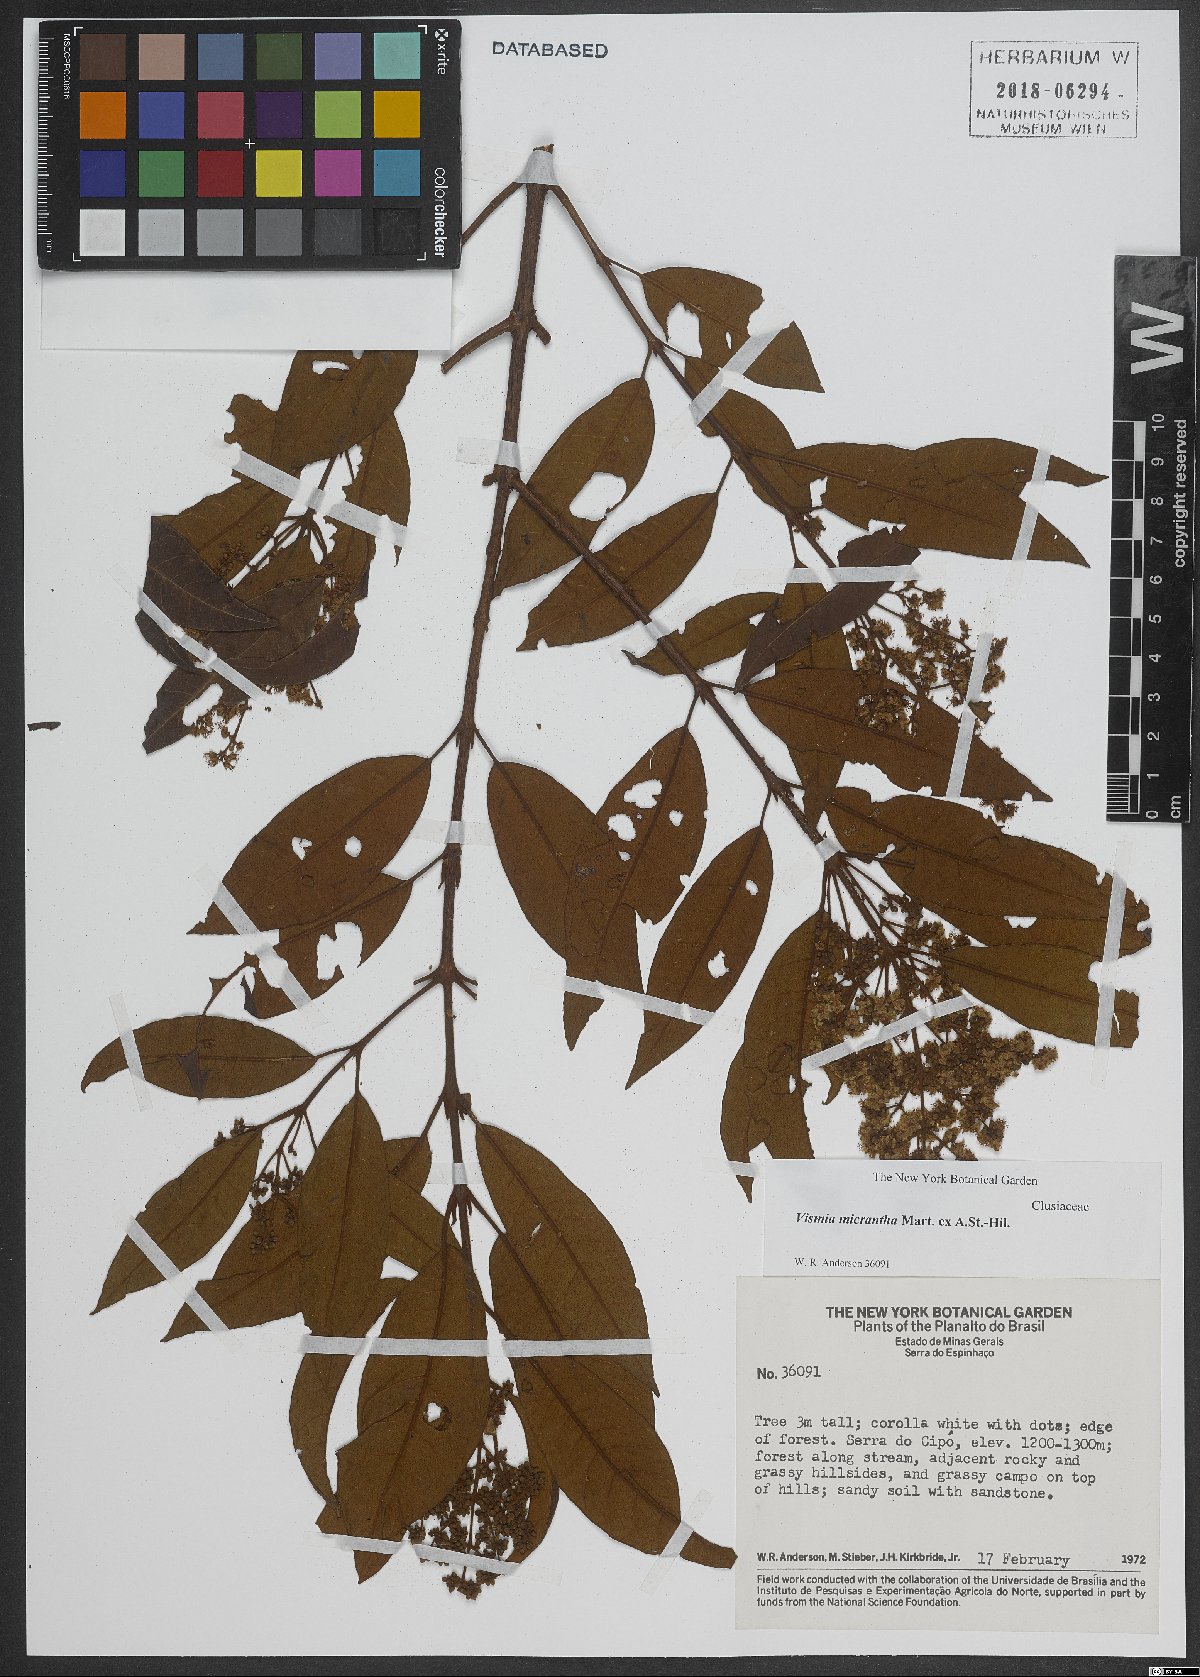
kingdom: Plantae
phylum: Tracheophyta
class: Magnoliopsida
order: Malpighiales
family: Hypericaceae
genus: Vismia
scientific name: Vismia micrantha
